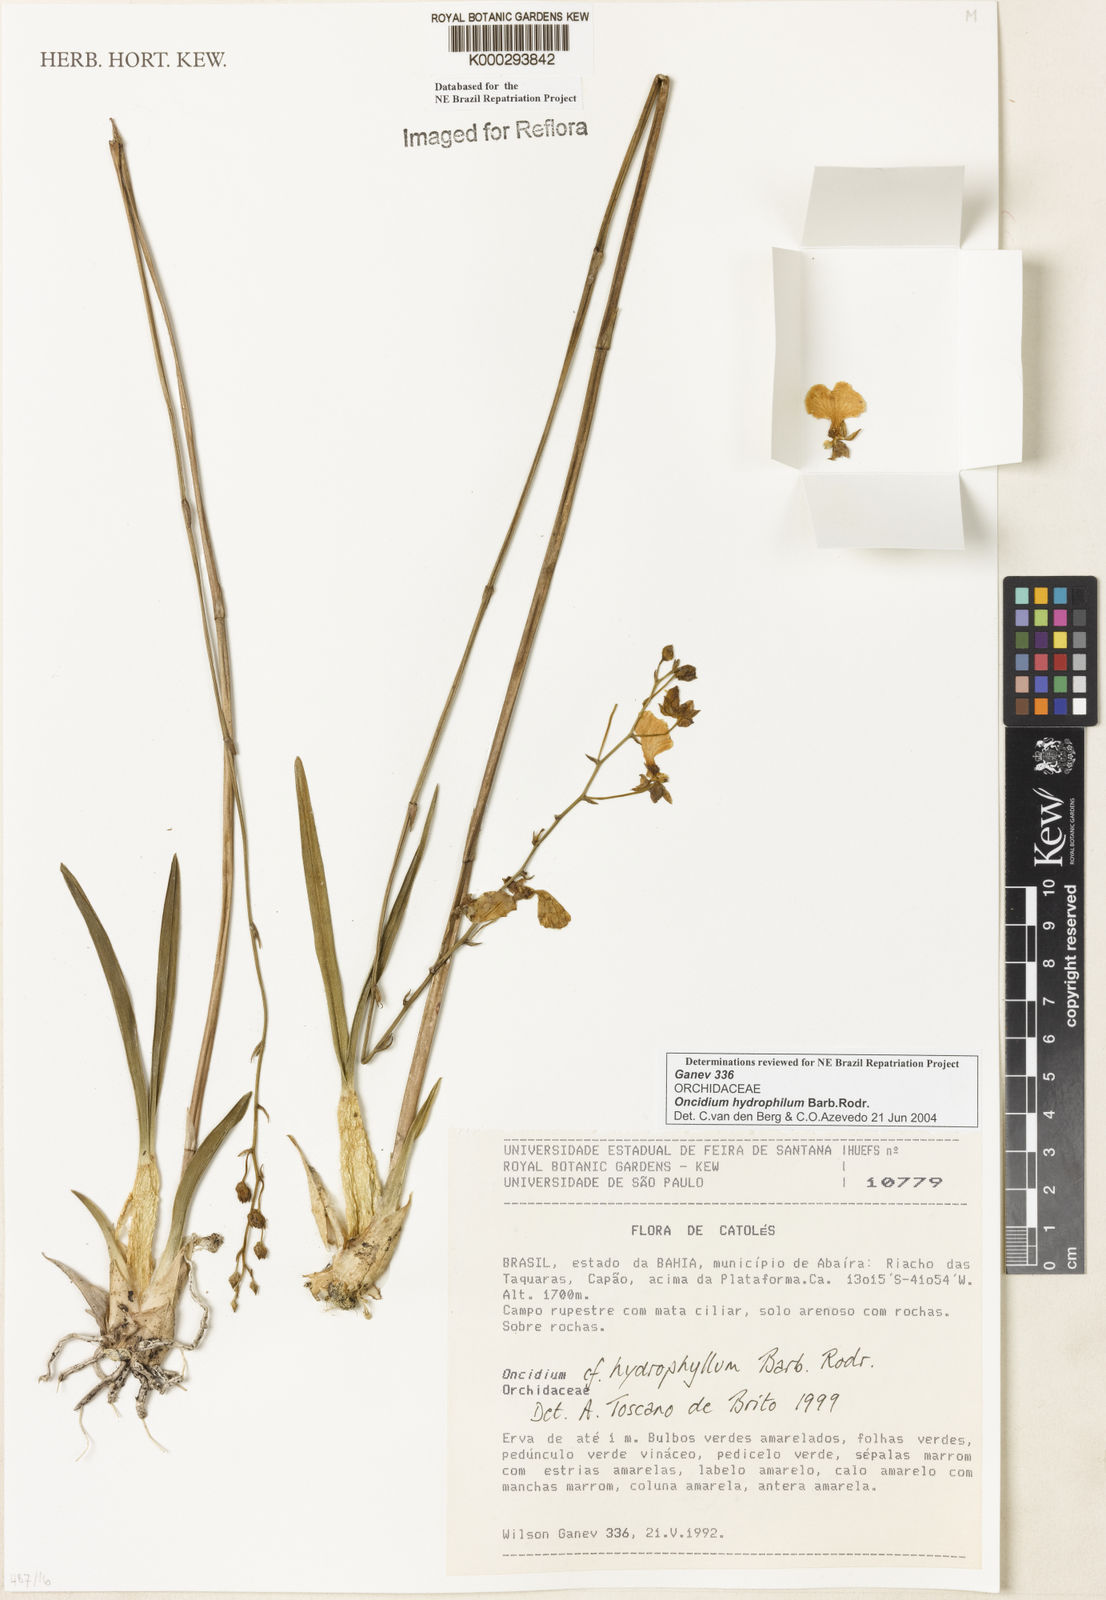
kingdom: Plantae
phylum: Tracheophyta
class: Liliopsida
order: Asparagales
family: Orchidaceae
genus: Gomesa
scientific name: Gomesa sincorana
